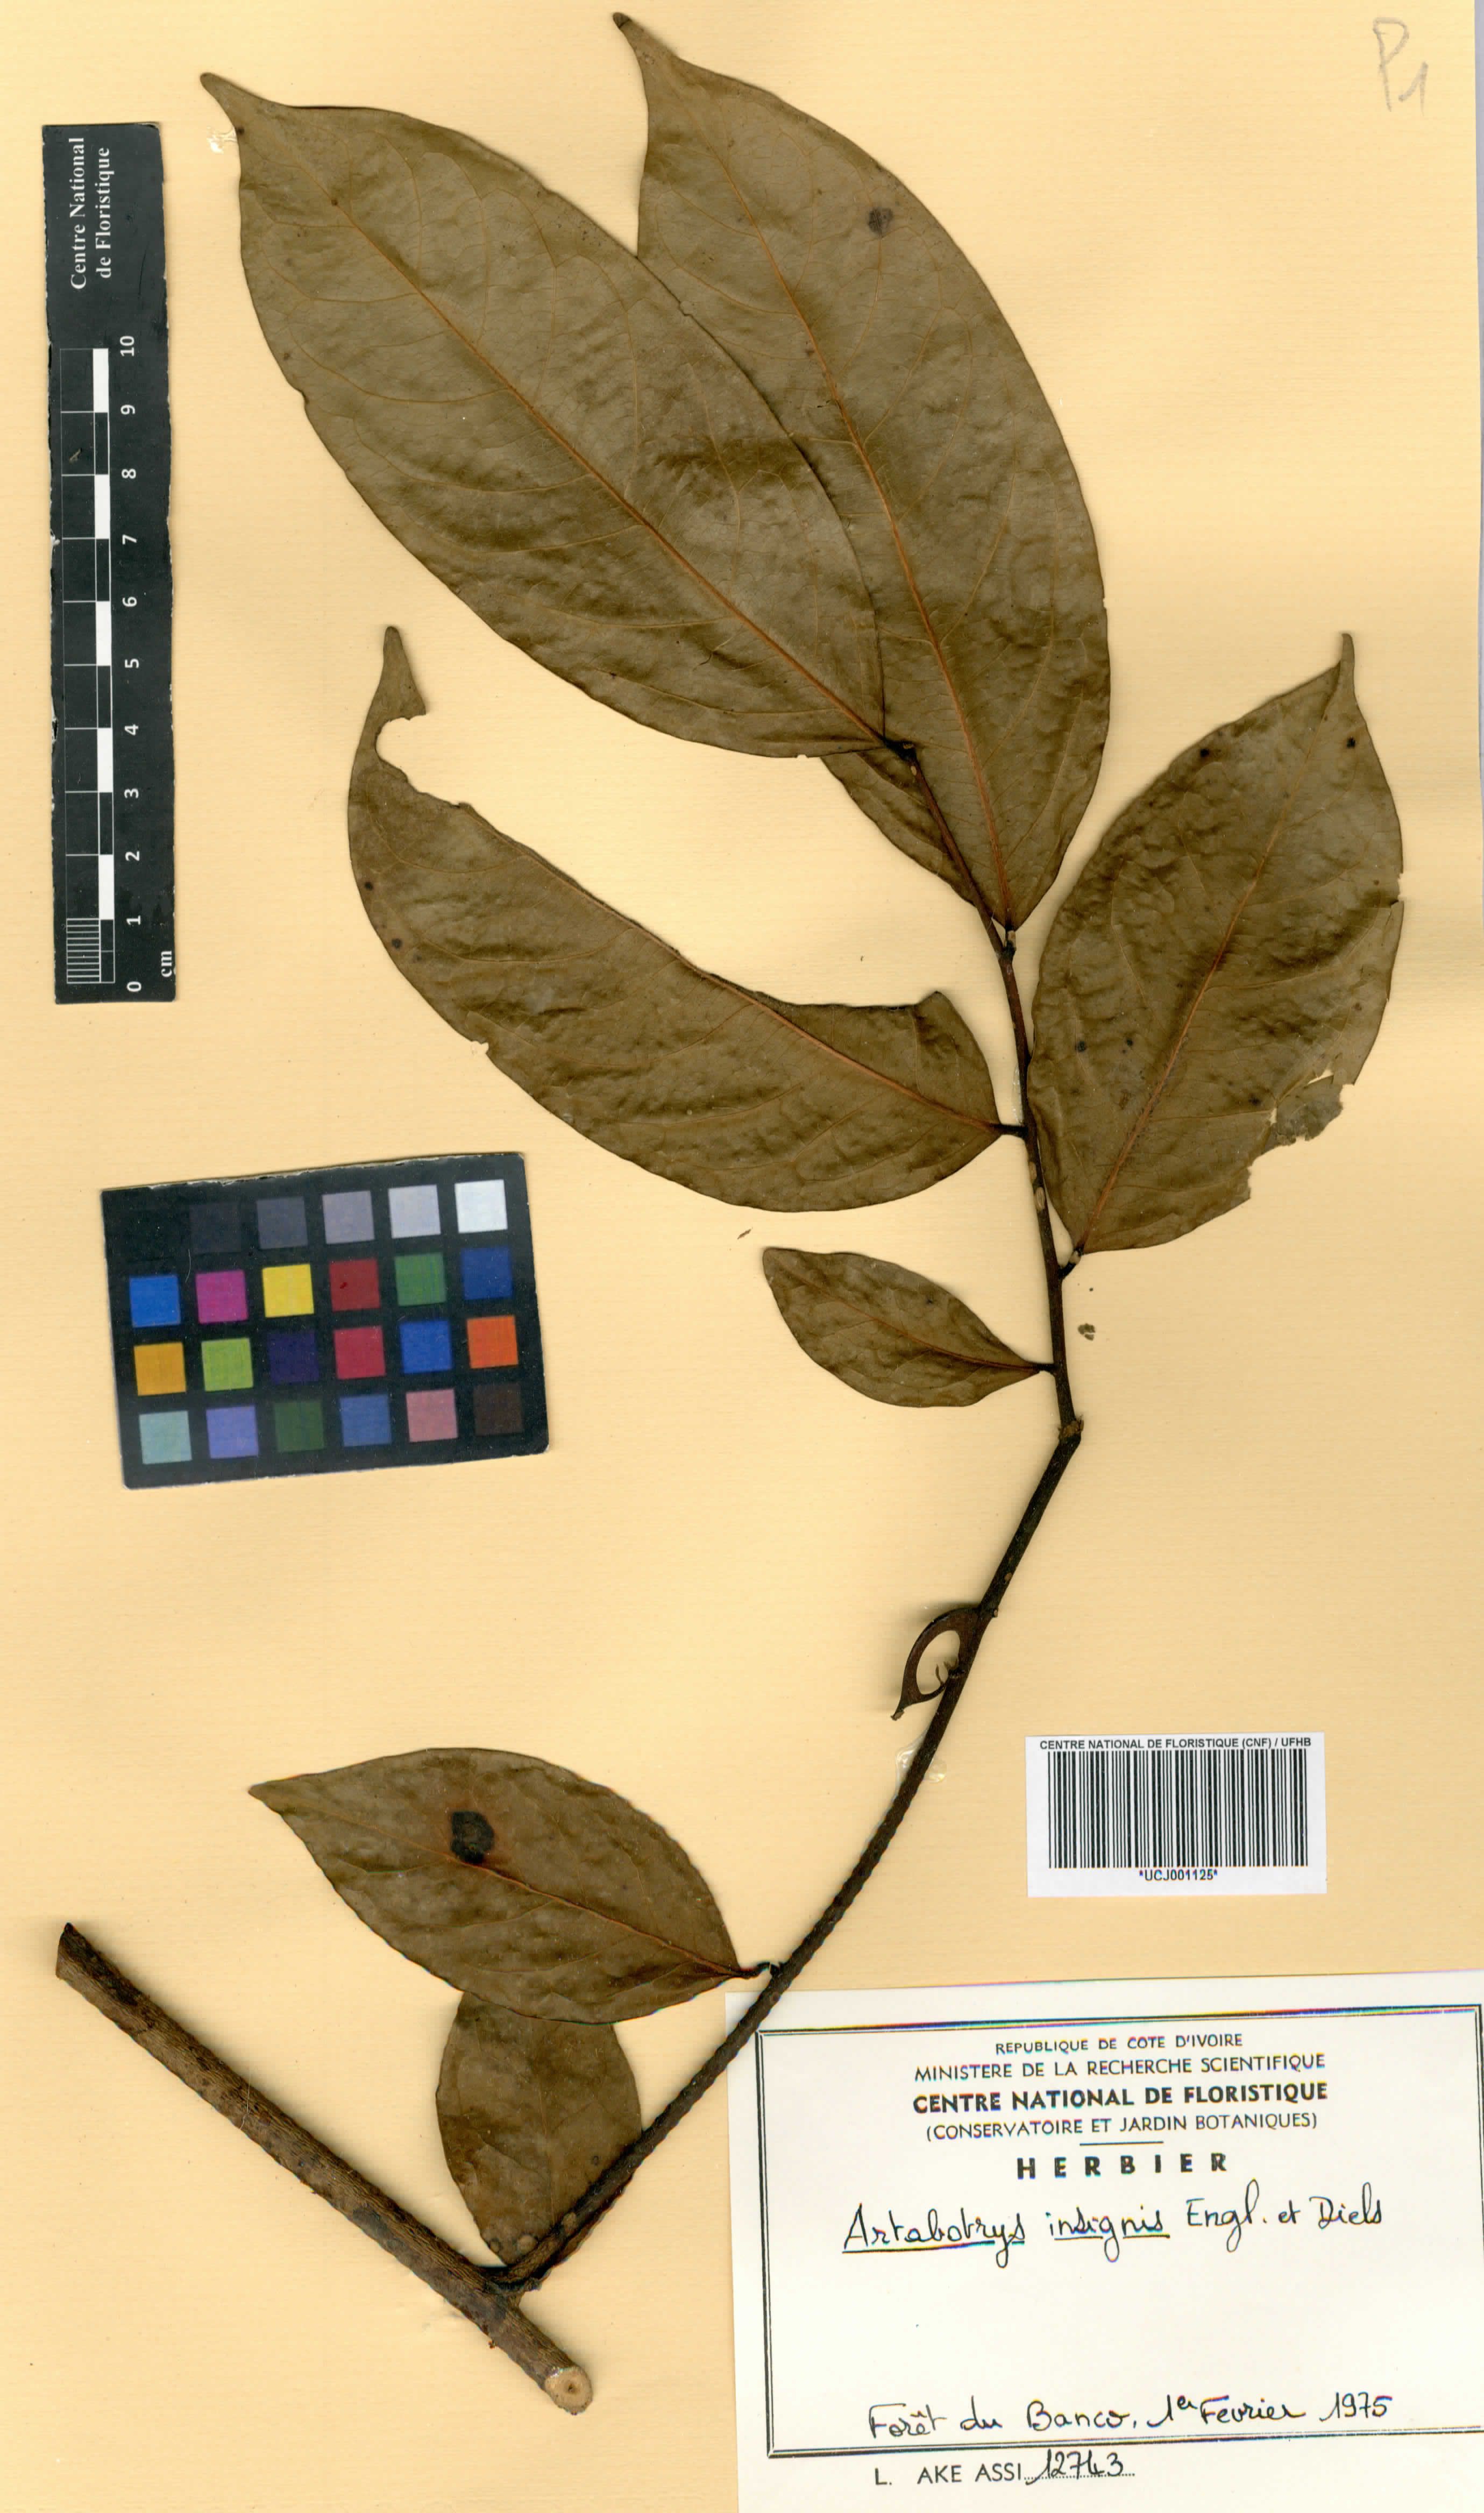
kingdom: Plantae
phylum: Tracheophyta
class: Magnoliopsida
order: Magnoliales
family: Annonaceae
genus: Artabotrys
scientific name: Artabotrys insignis
